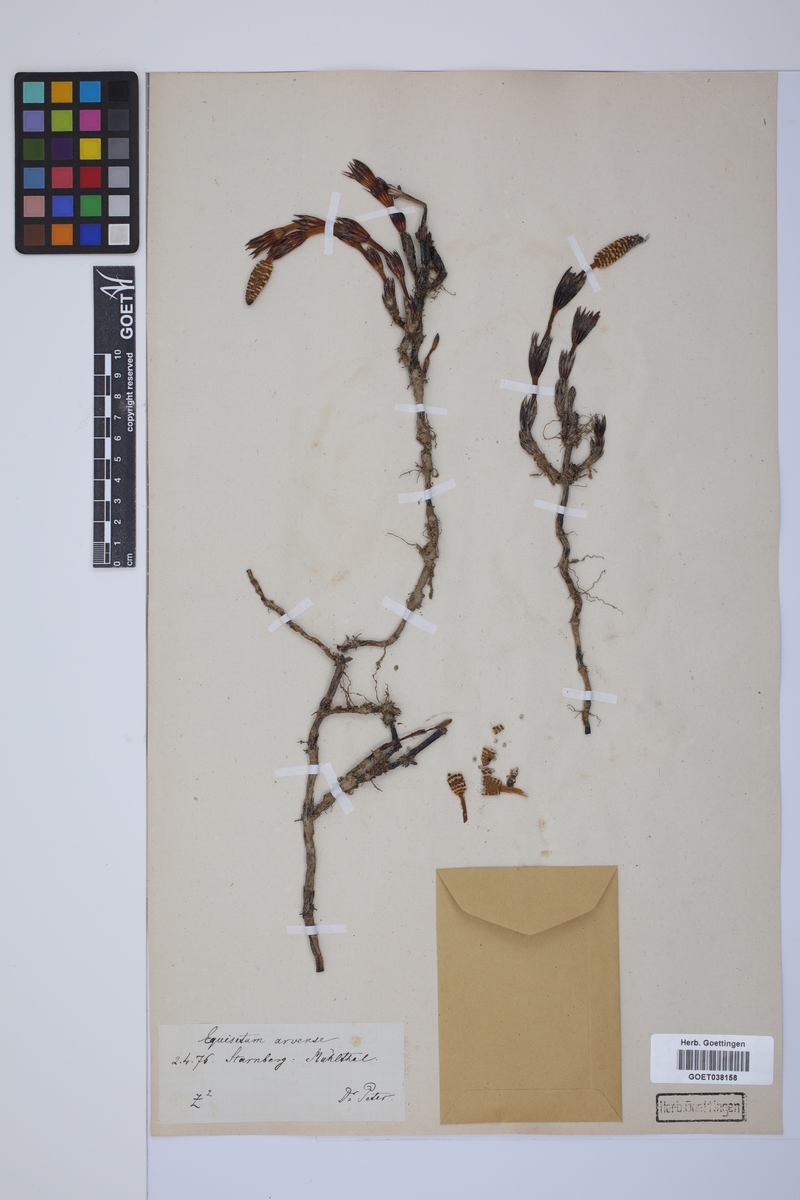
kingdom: Plantae
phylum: Tracheophyta
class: Polypodiopsida
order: Equisetales
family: Equisetaceae
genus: Equisetum
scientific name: Equisetum arvense
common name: Field horsetail
